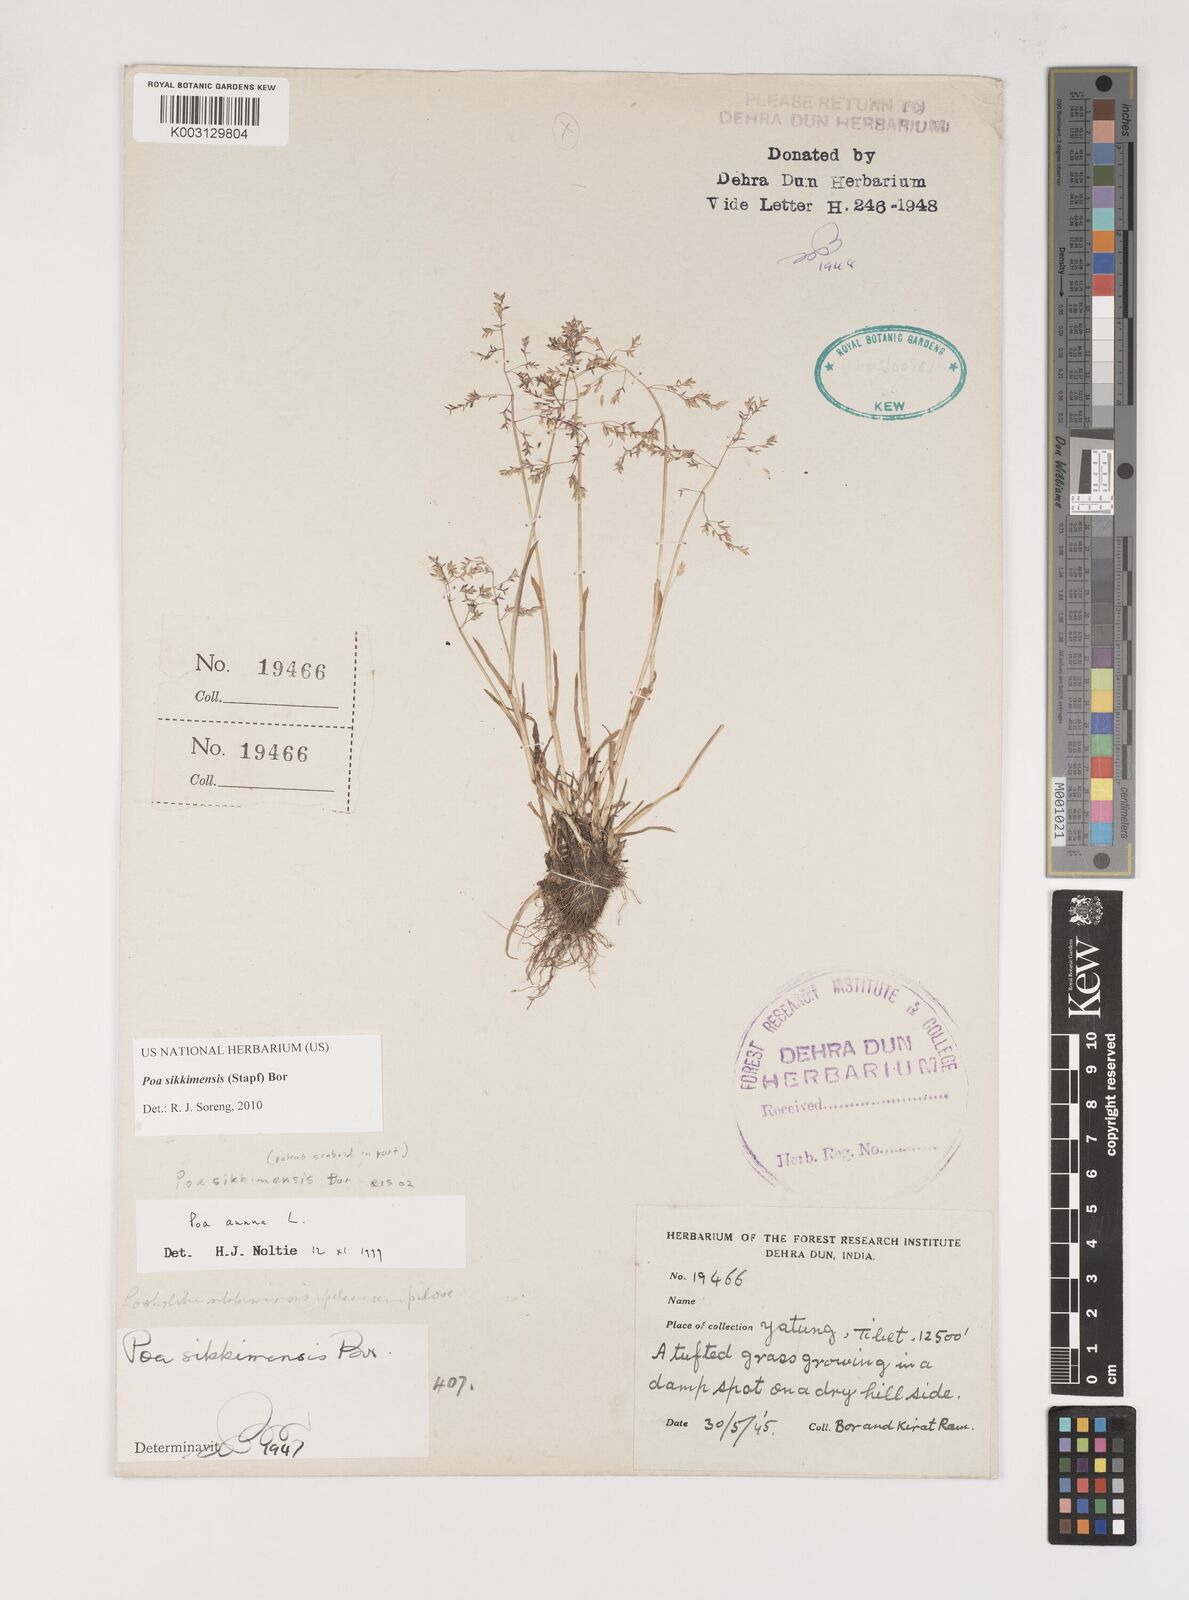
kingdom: Plantae
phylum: Tracheophyta
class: Liliopsida
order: Poales
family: Poaceae
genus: Poa
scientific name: Poa sikkimensis
